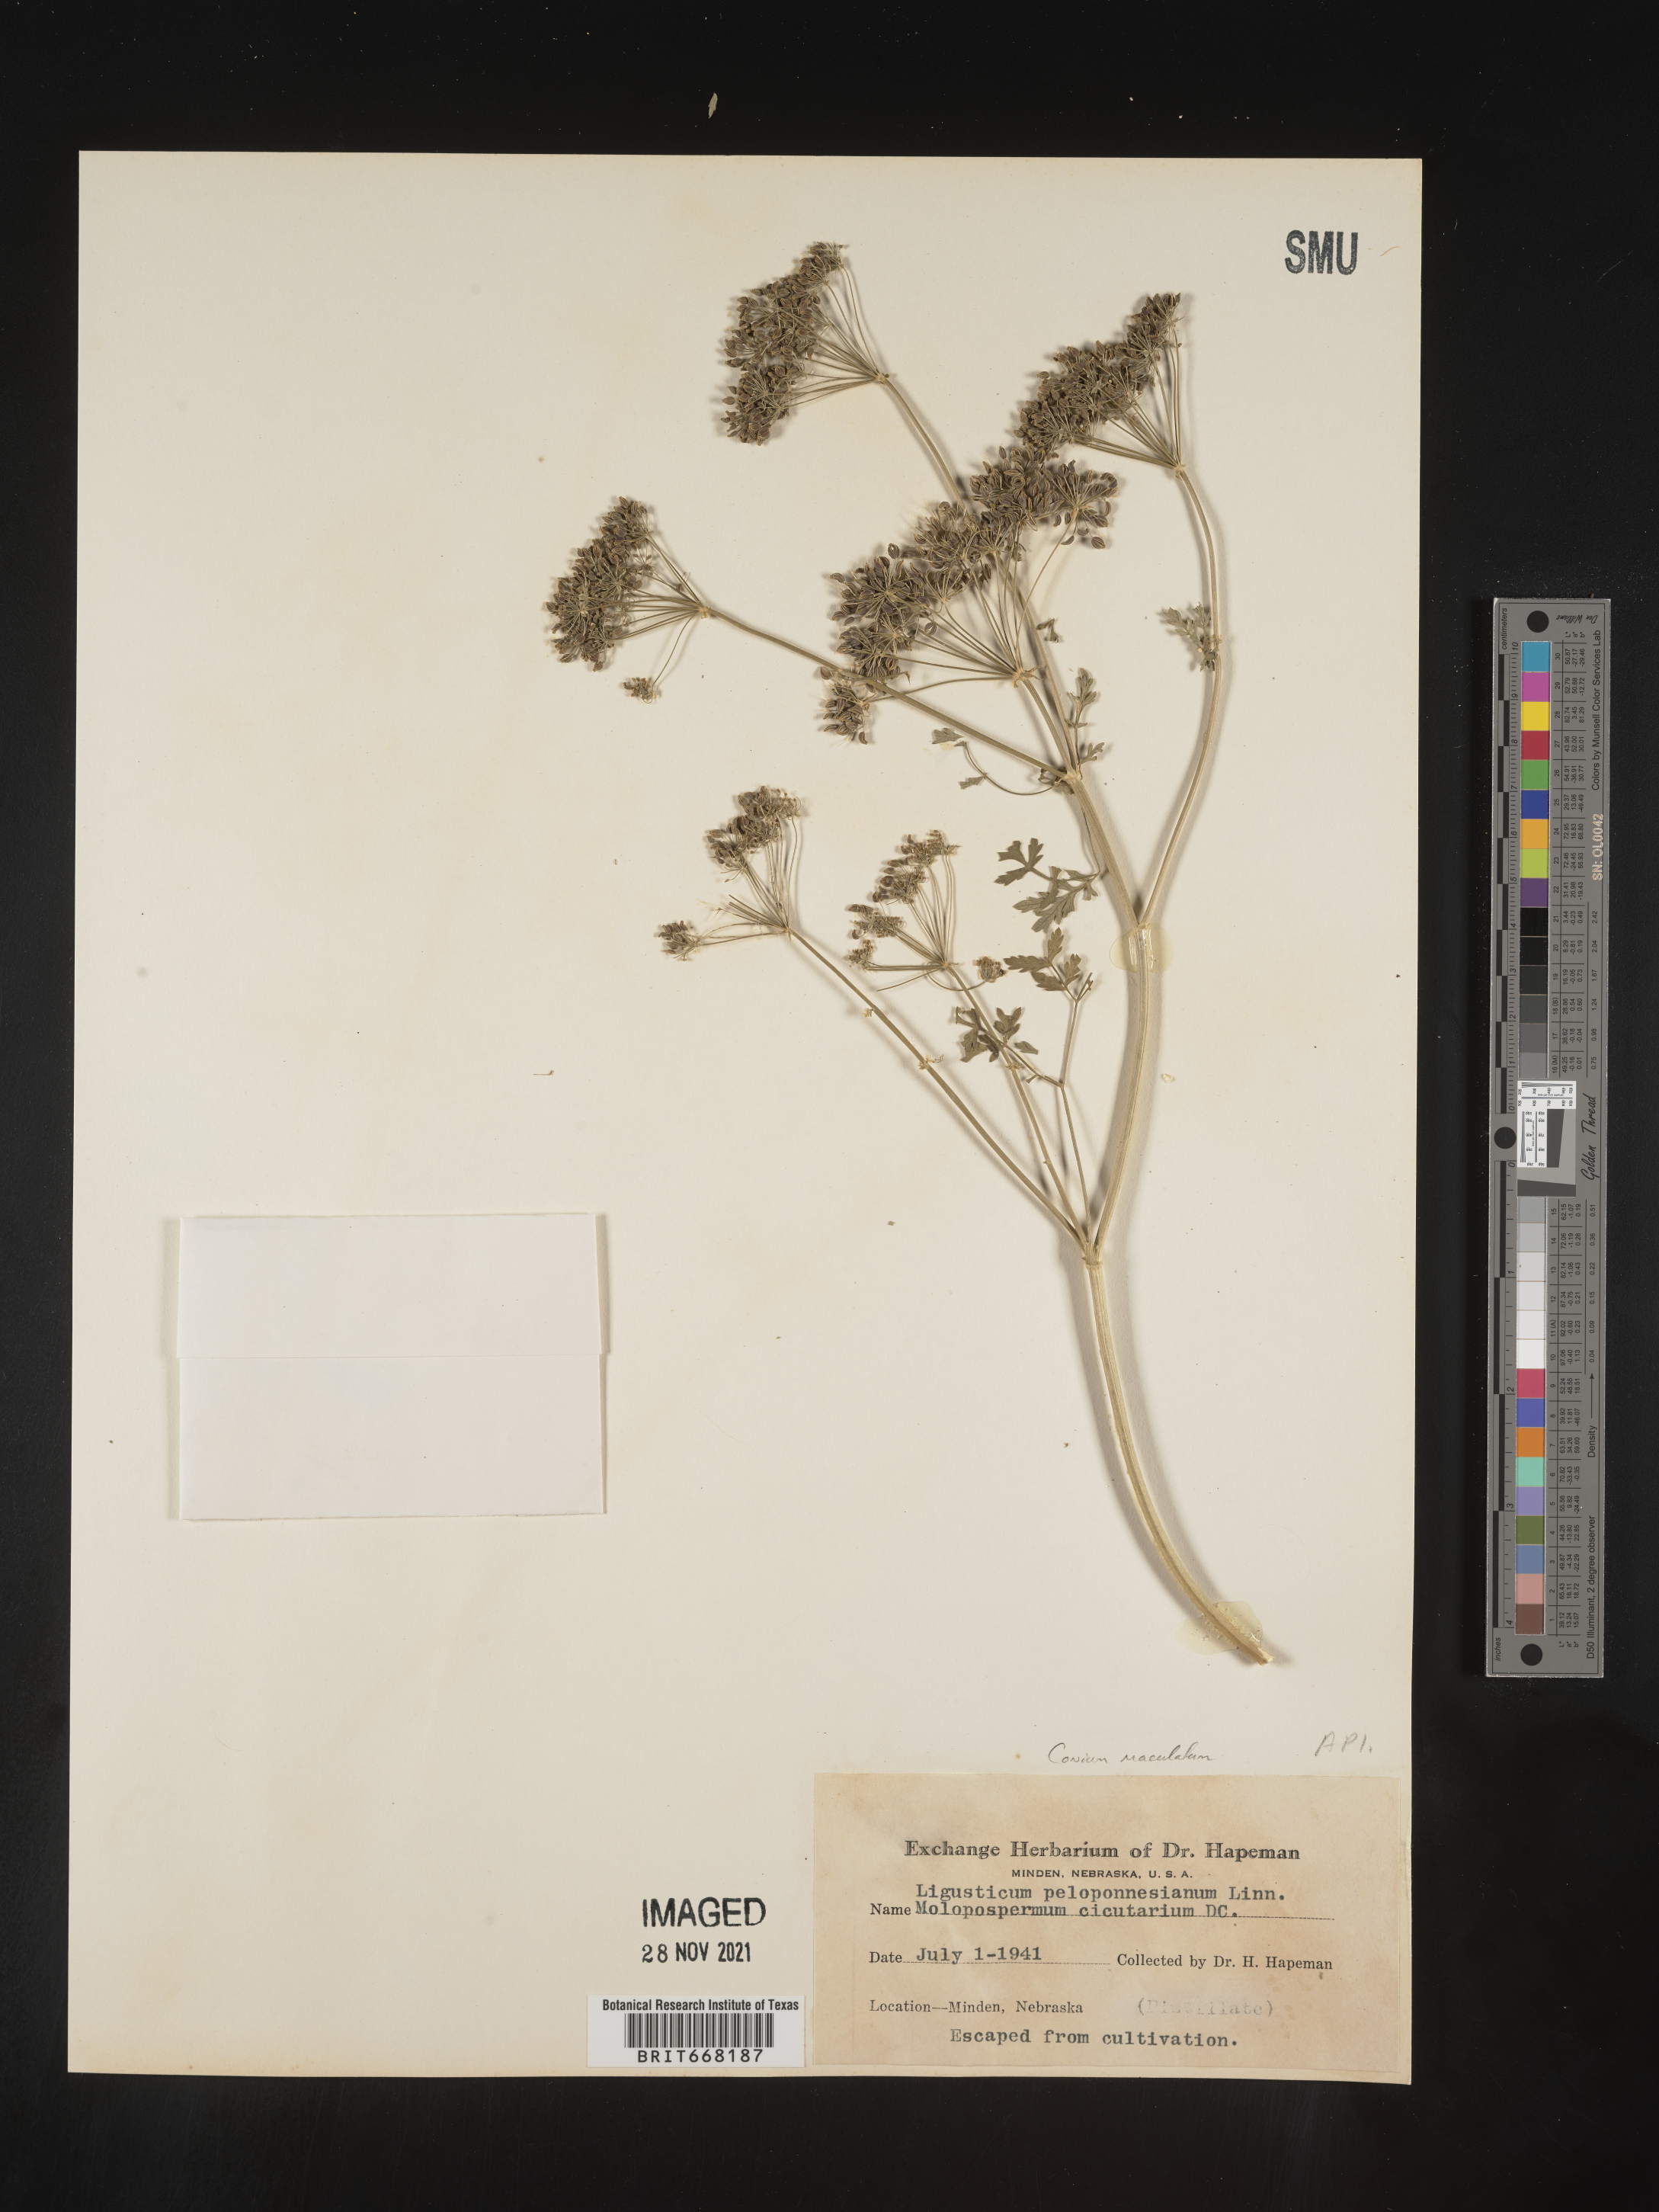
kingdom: Plantae
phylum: Tracheophyta
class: Magnoliopsida
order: Apiales
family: Apiaceae
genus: Conium
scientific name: Conium maculatum
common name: Hemlock
